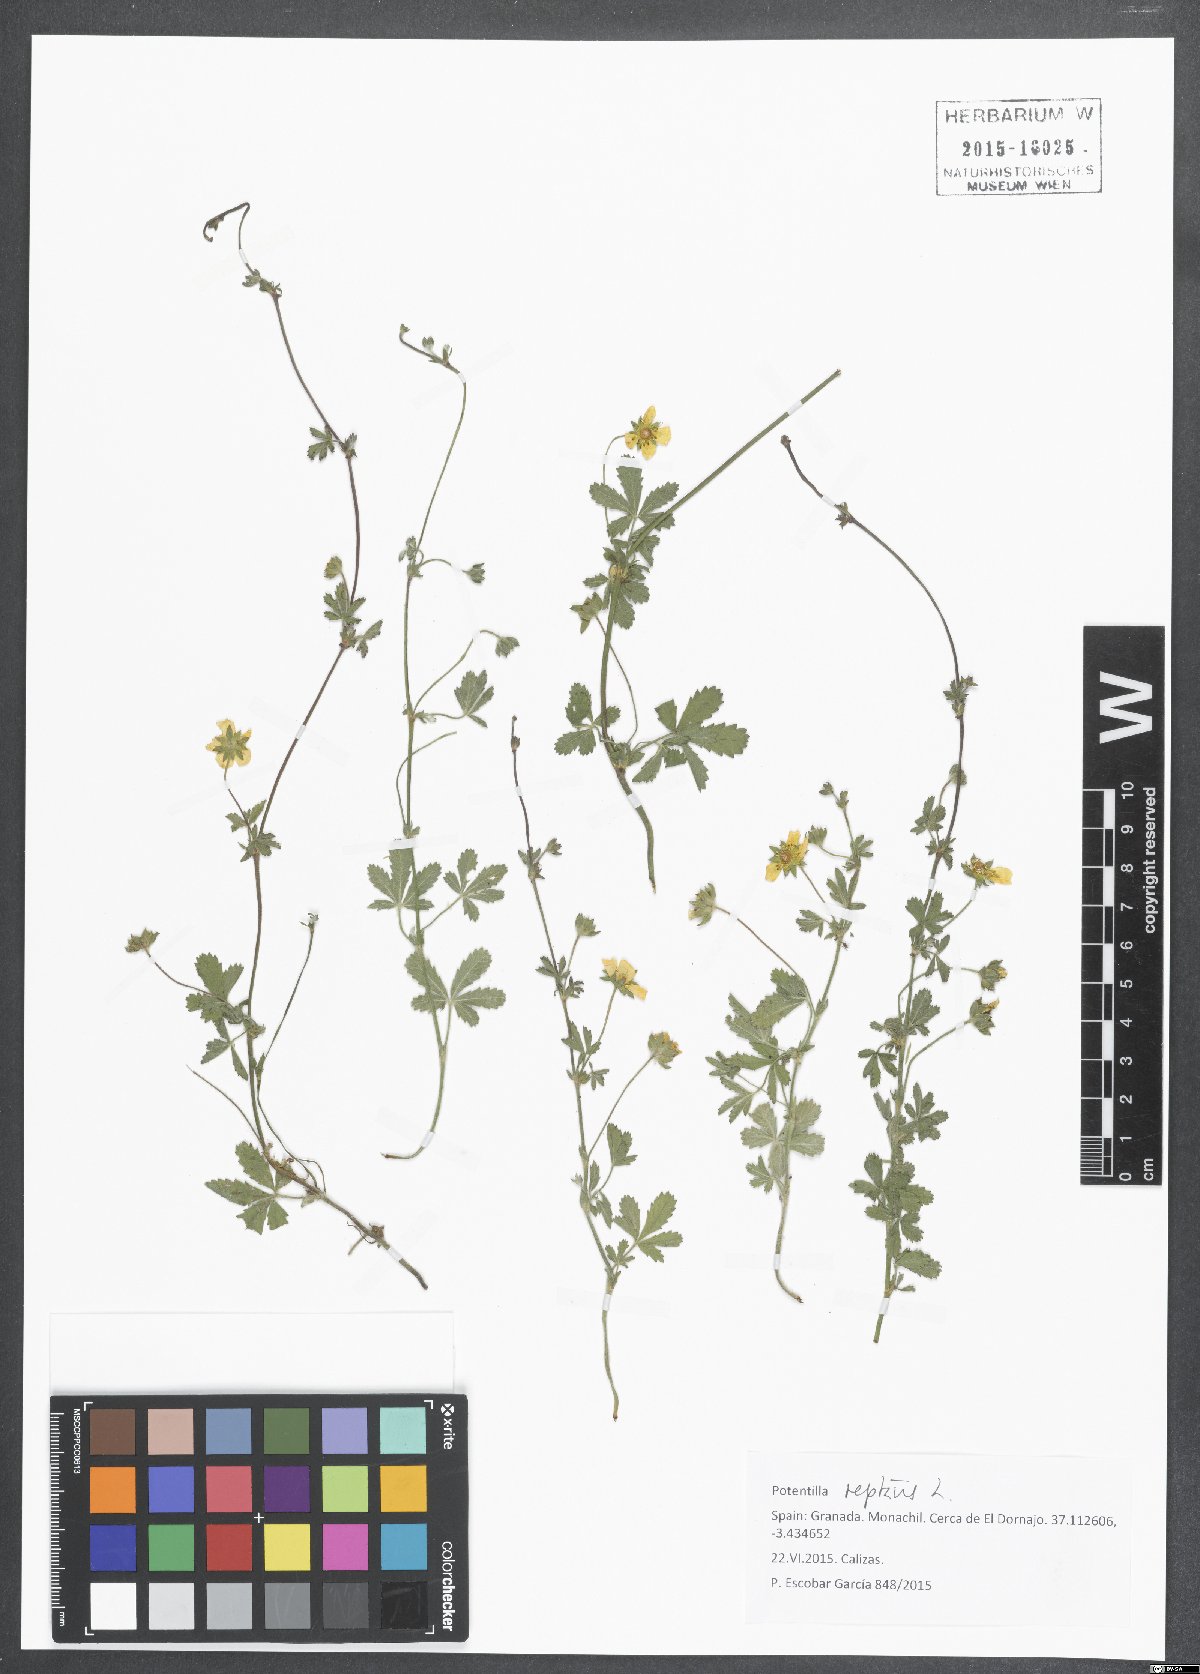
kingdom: Plantae
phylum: Tracheophyta
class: Magnoliopsida
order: Rosales
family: Rosaceae
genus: Potentilla
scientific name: Potentilla reptans
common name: Creeping cinquefoil
